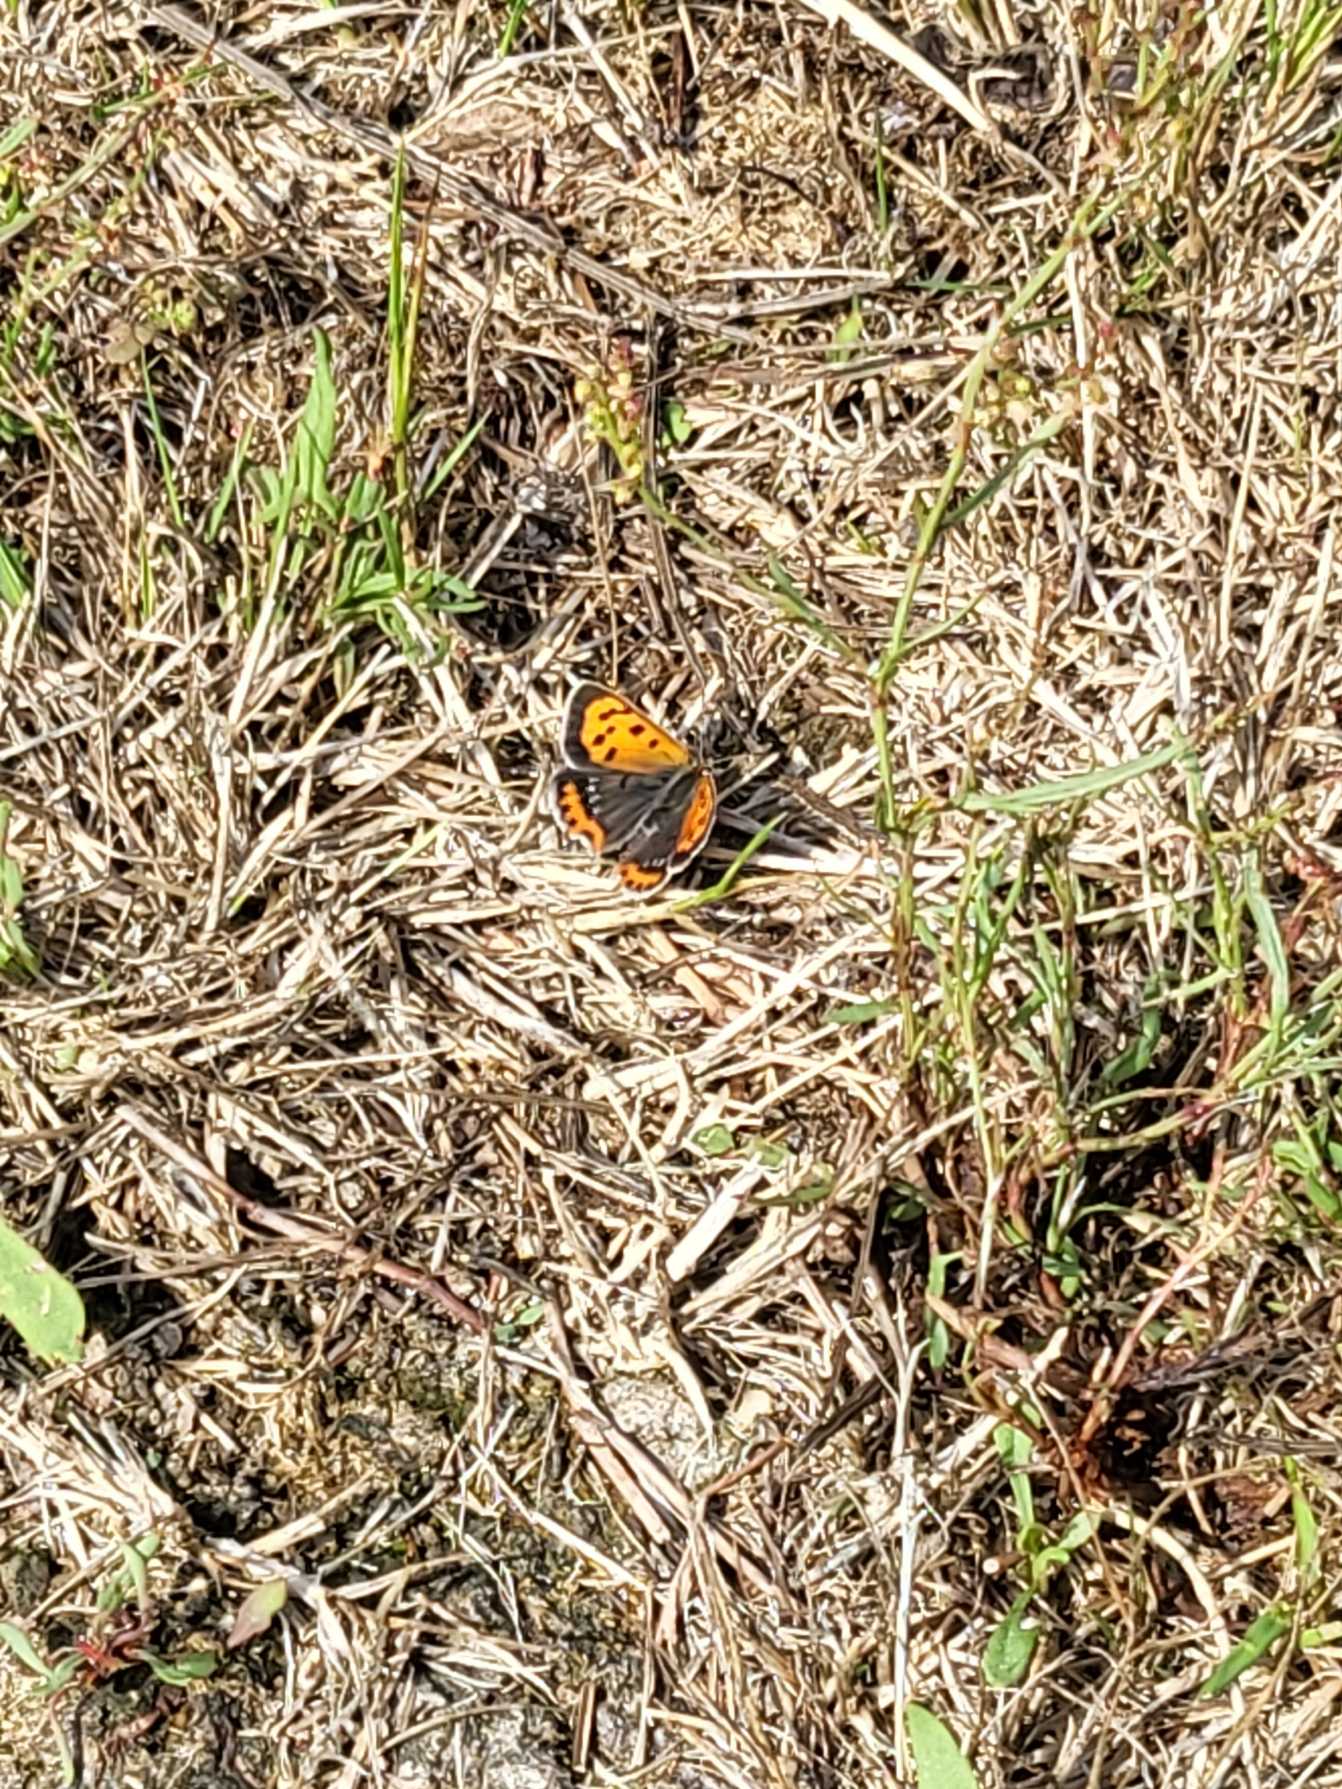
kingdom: Animalia
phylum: Arthropoda
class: Insecta
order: Lepidoptera
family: Lycaenidae
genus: Lycaena
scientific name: Lycaena phlaeas
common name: Lille ildfugl
